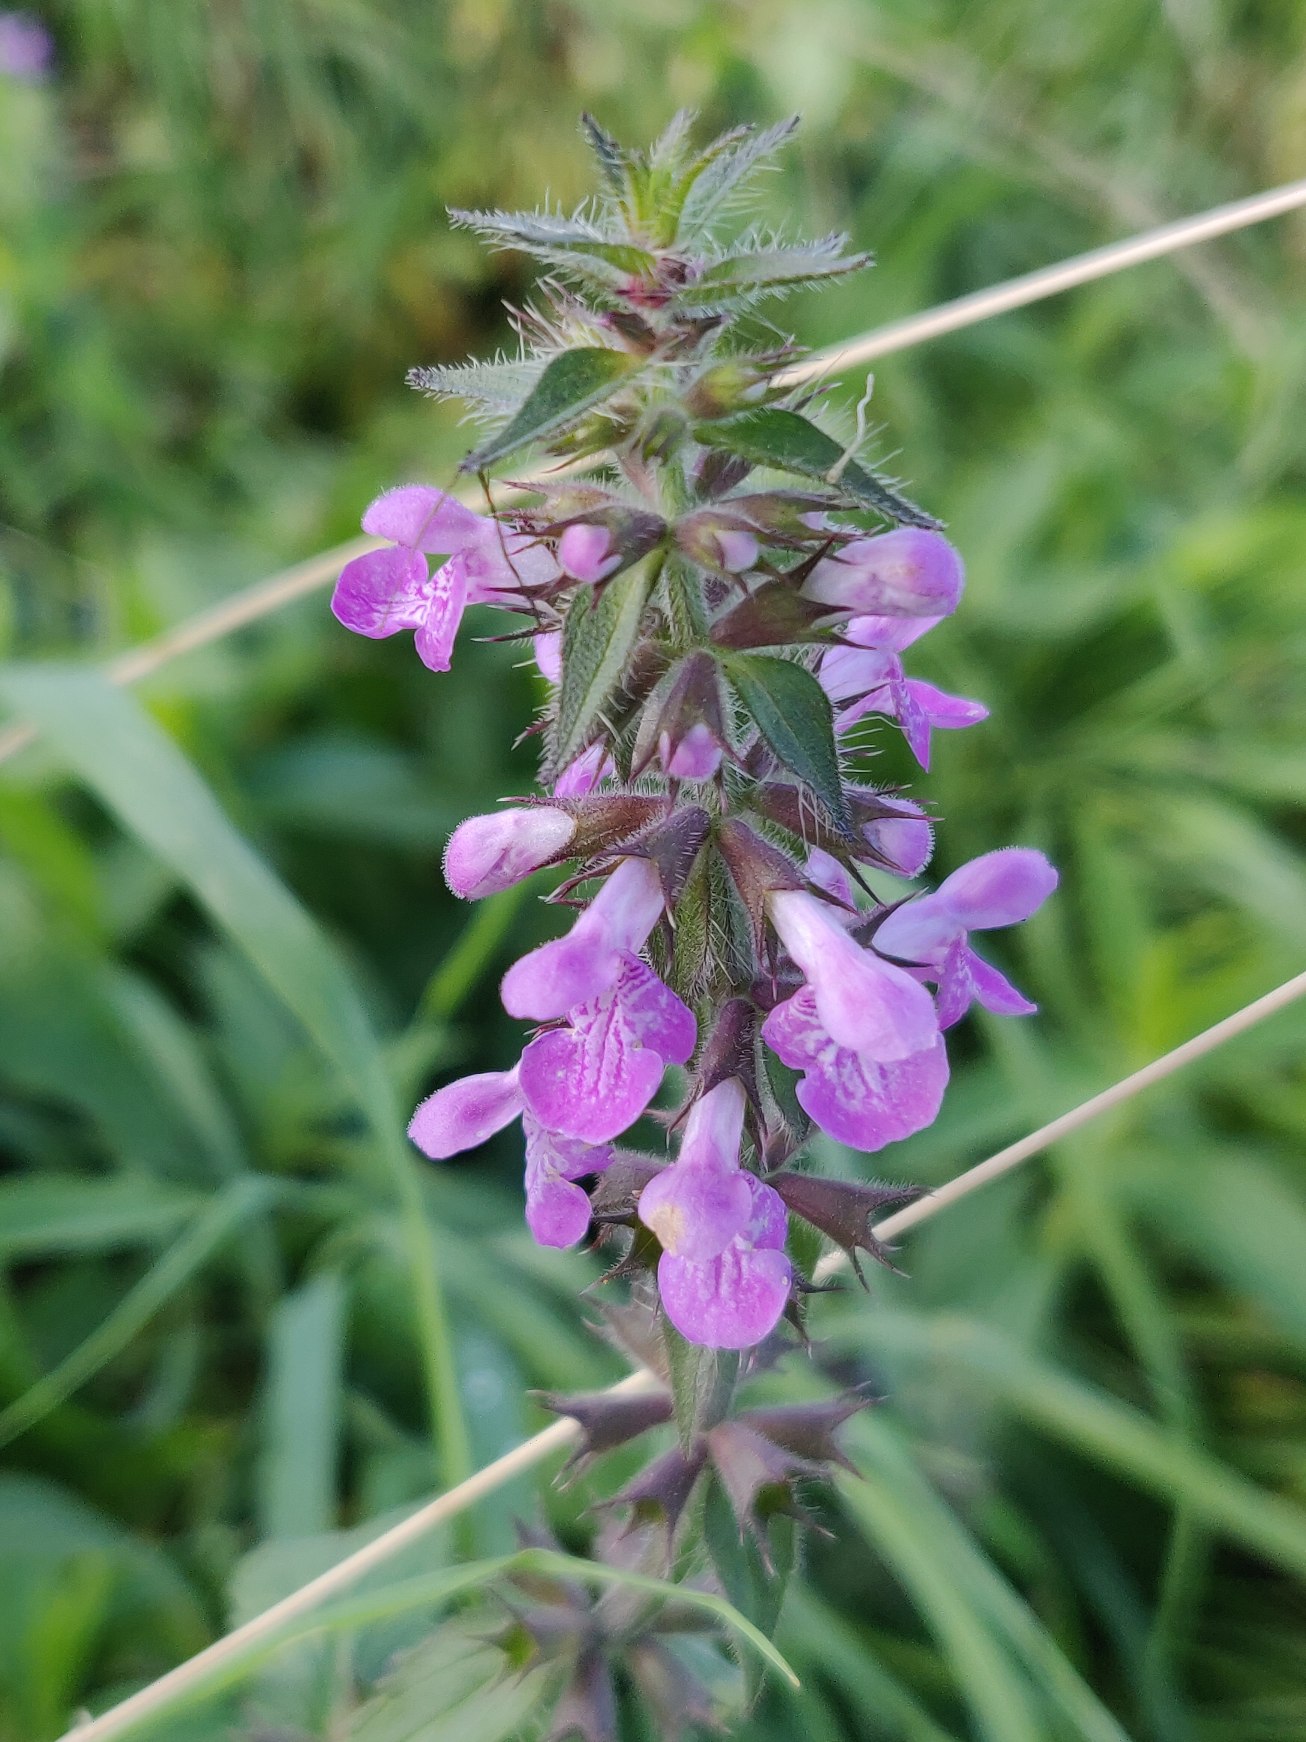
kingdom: Plantae
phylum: Tracheophyta
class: Magnoliopsida
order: Lamiales
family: Lamiaceae
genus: Stachys
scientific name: Stachys palustris
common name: Kær-galtetand
